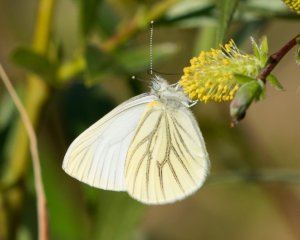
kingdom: Animalia
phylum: Arthropoda
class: Insecta
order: Lepidoptera
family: Pieridae
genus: Pieris
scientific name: Pieris oleracea
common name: Mustard White
